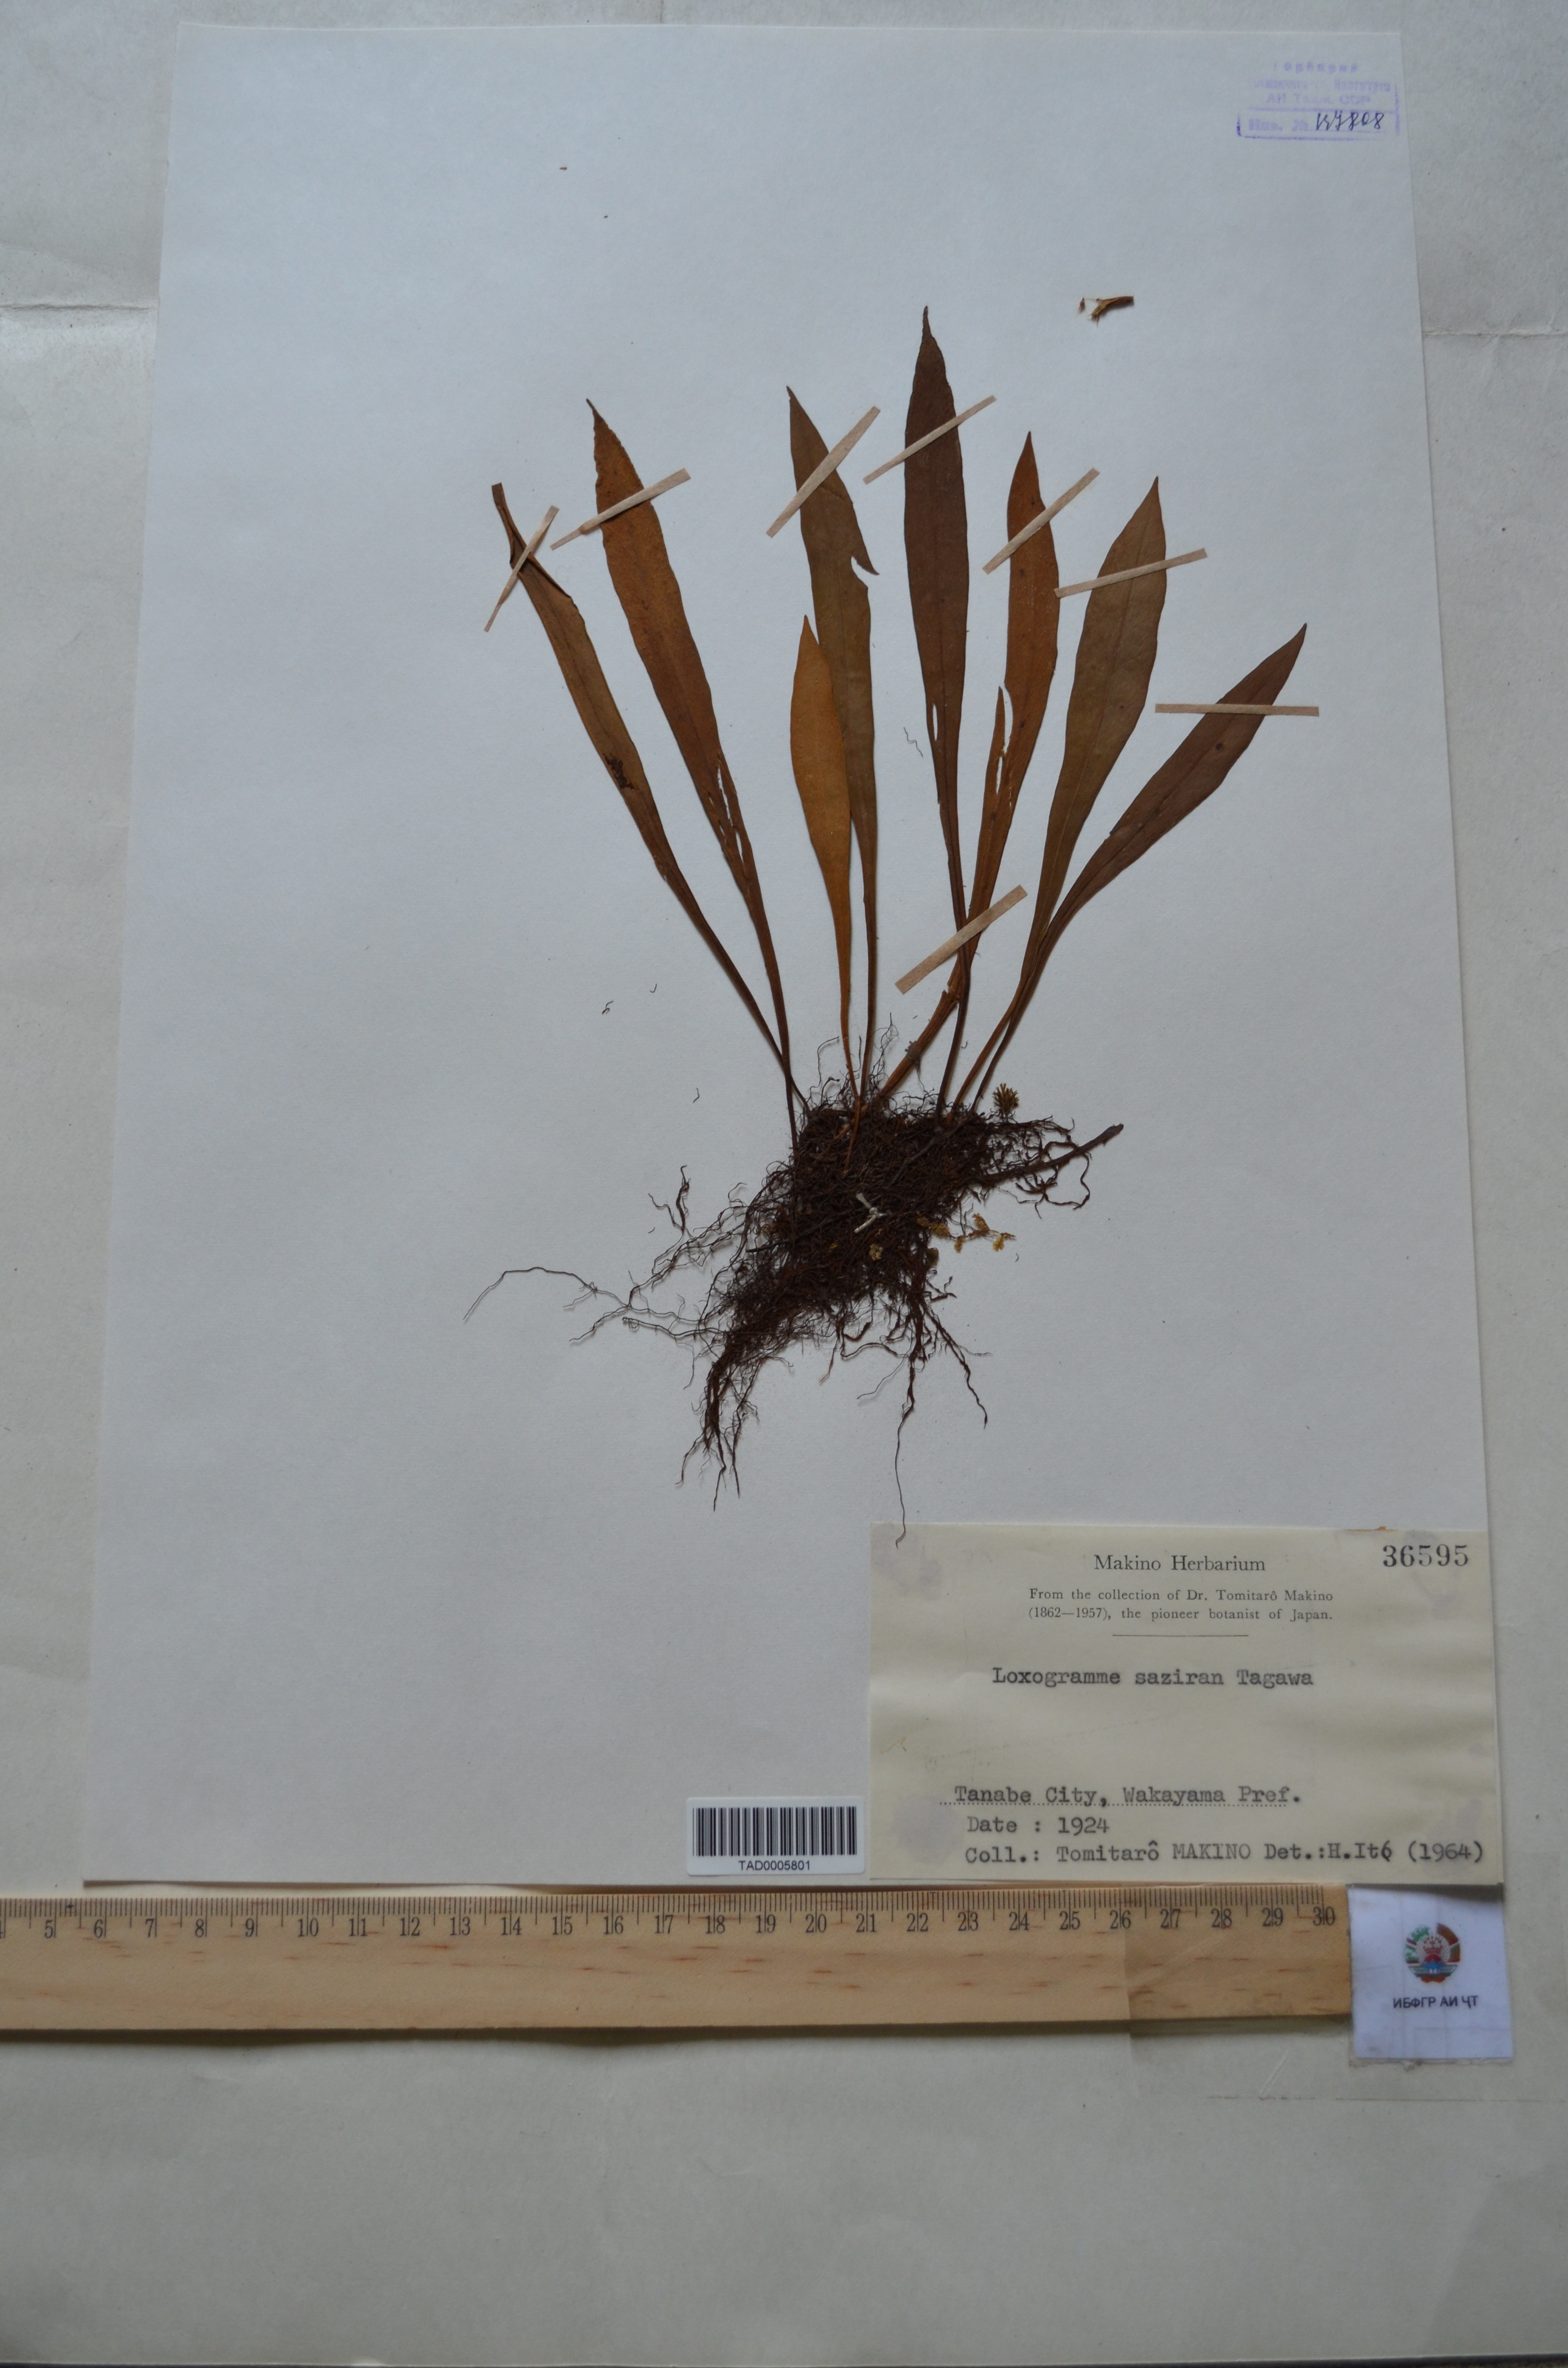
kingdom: Plantae
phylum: Tracheophyta
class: Polypodiopsida
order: Polypodiales
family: Polypodiaceae
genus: Loxogramme
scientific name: Loxogramme cuspidata
